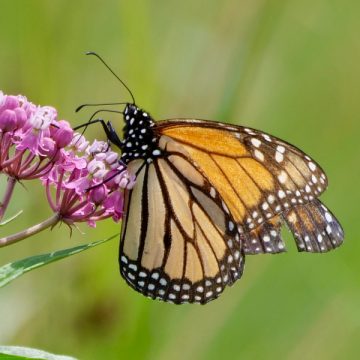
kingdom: Animalia
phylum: Arthropoda
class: Insecta
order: Lepidoptera
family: Nymphalidae
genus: Danaus
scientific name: Danaus plexippus
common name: Monarch
